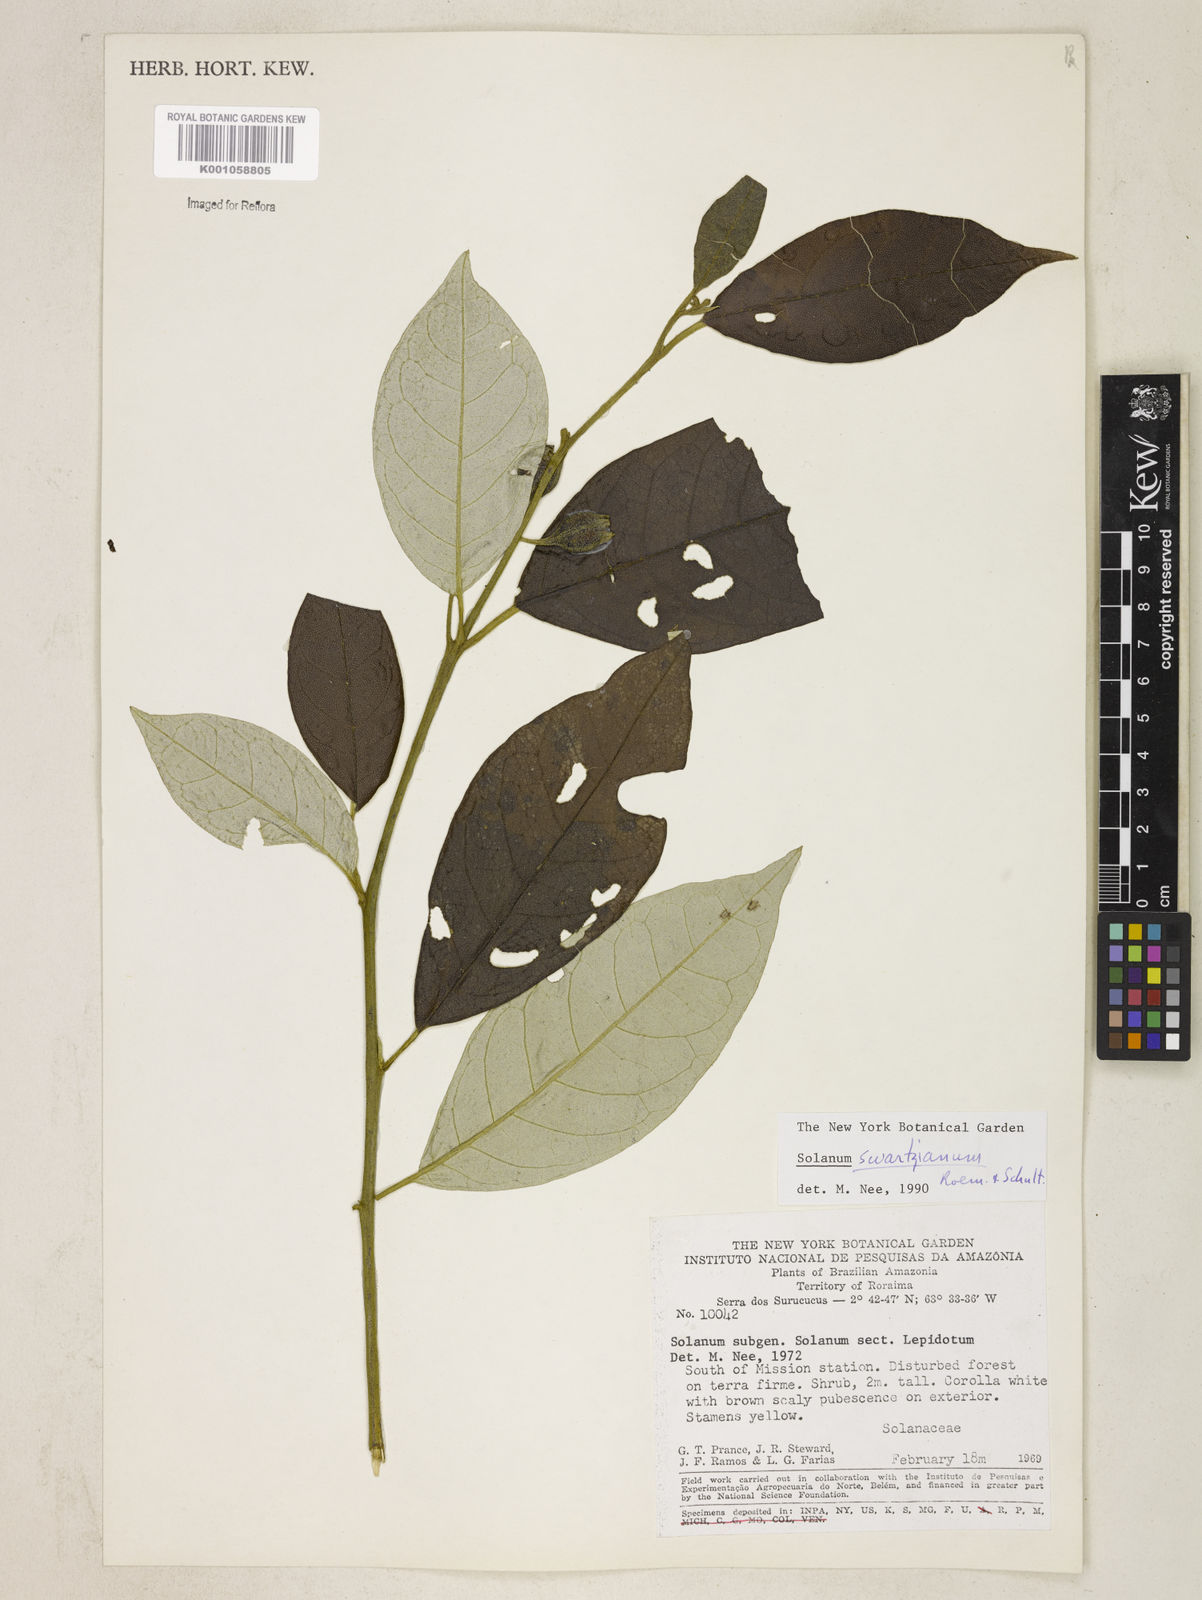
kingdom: Plantae
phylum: Tracheophyta
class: Magnoliopsida
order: Solanales
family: Solanaceae
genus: Solanum
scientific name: Solanum swartzianum
